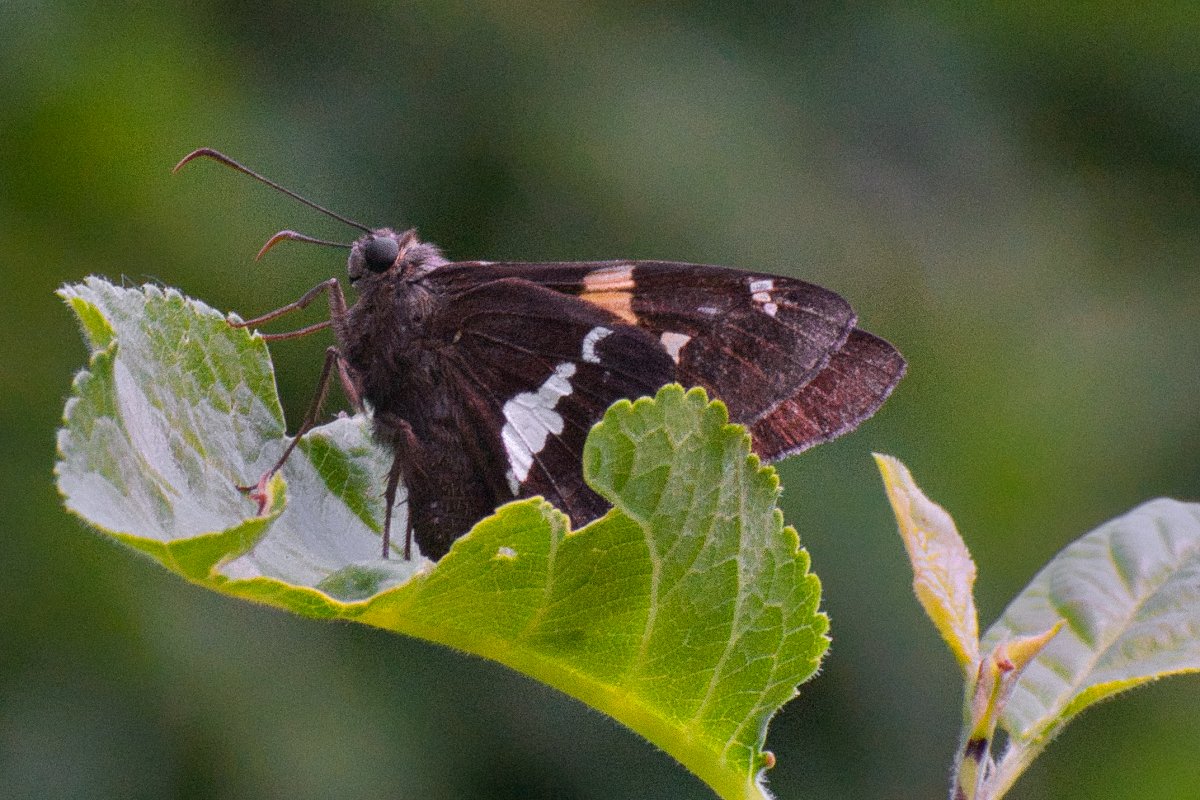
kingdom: Animalia
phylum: Arthropoda
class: Insecta
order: Lepidoptera
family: Hesperiidae
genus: Epargyreus
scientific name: Epargyreus clarus
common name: Silver-spotted Skipper
